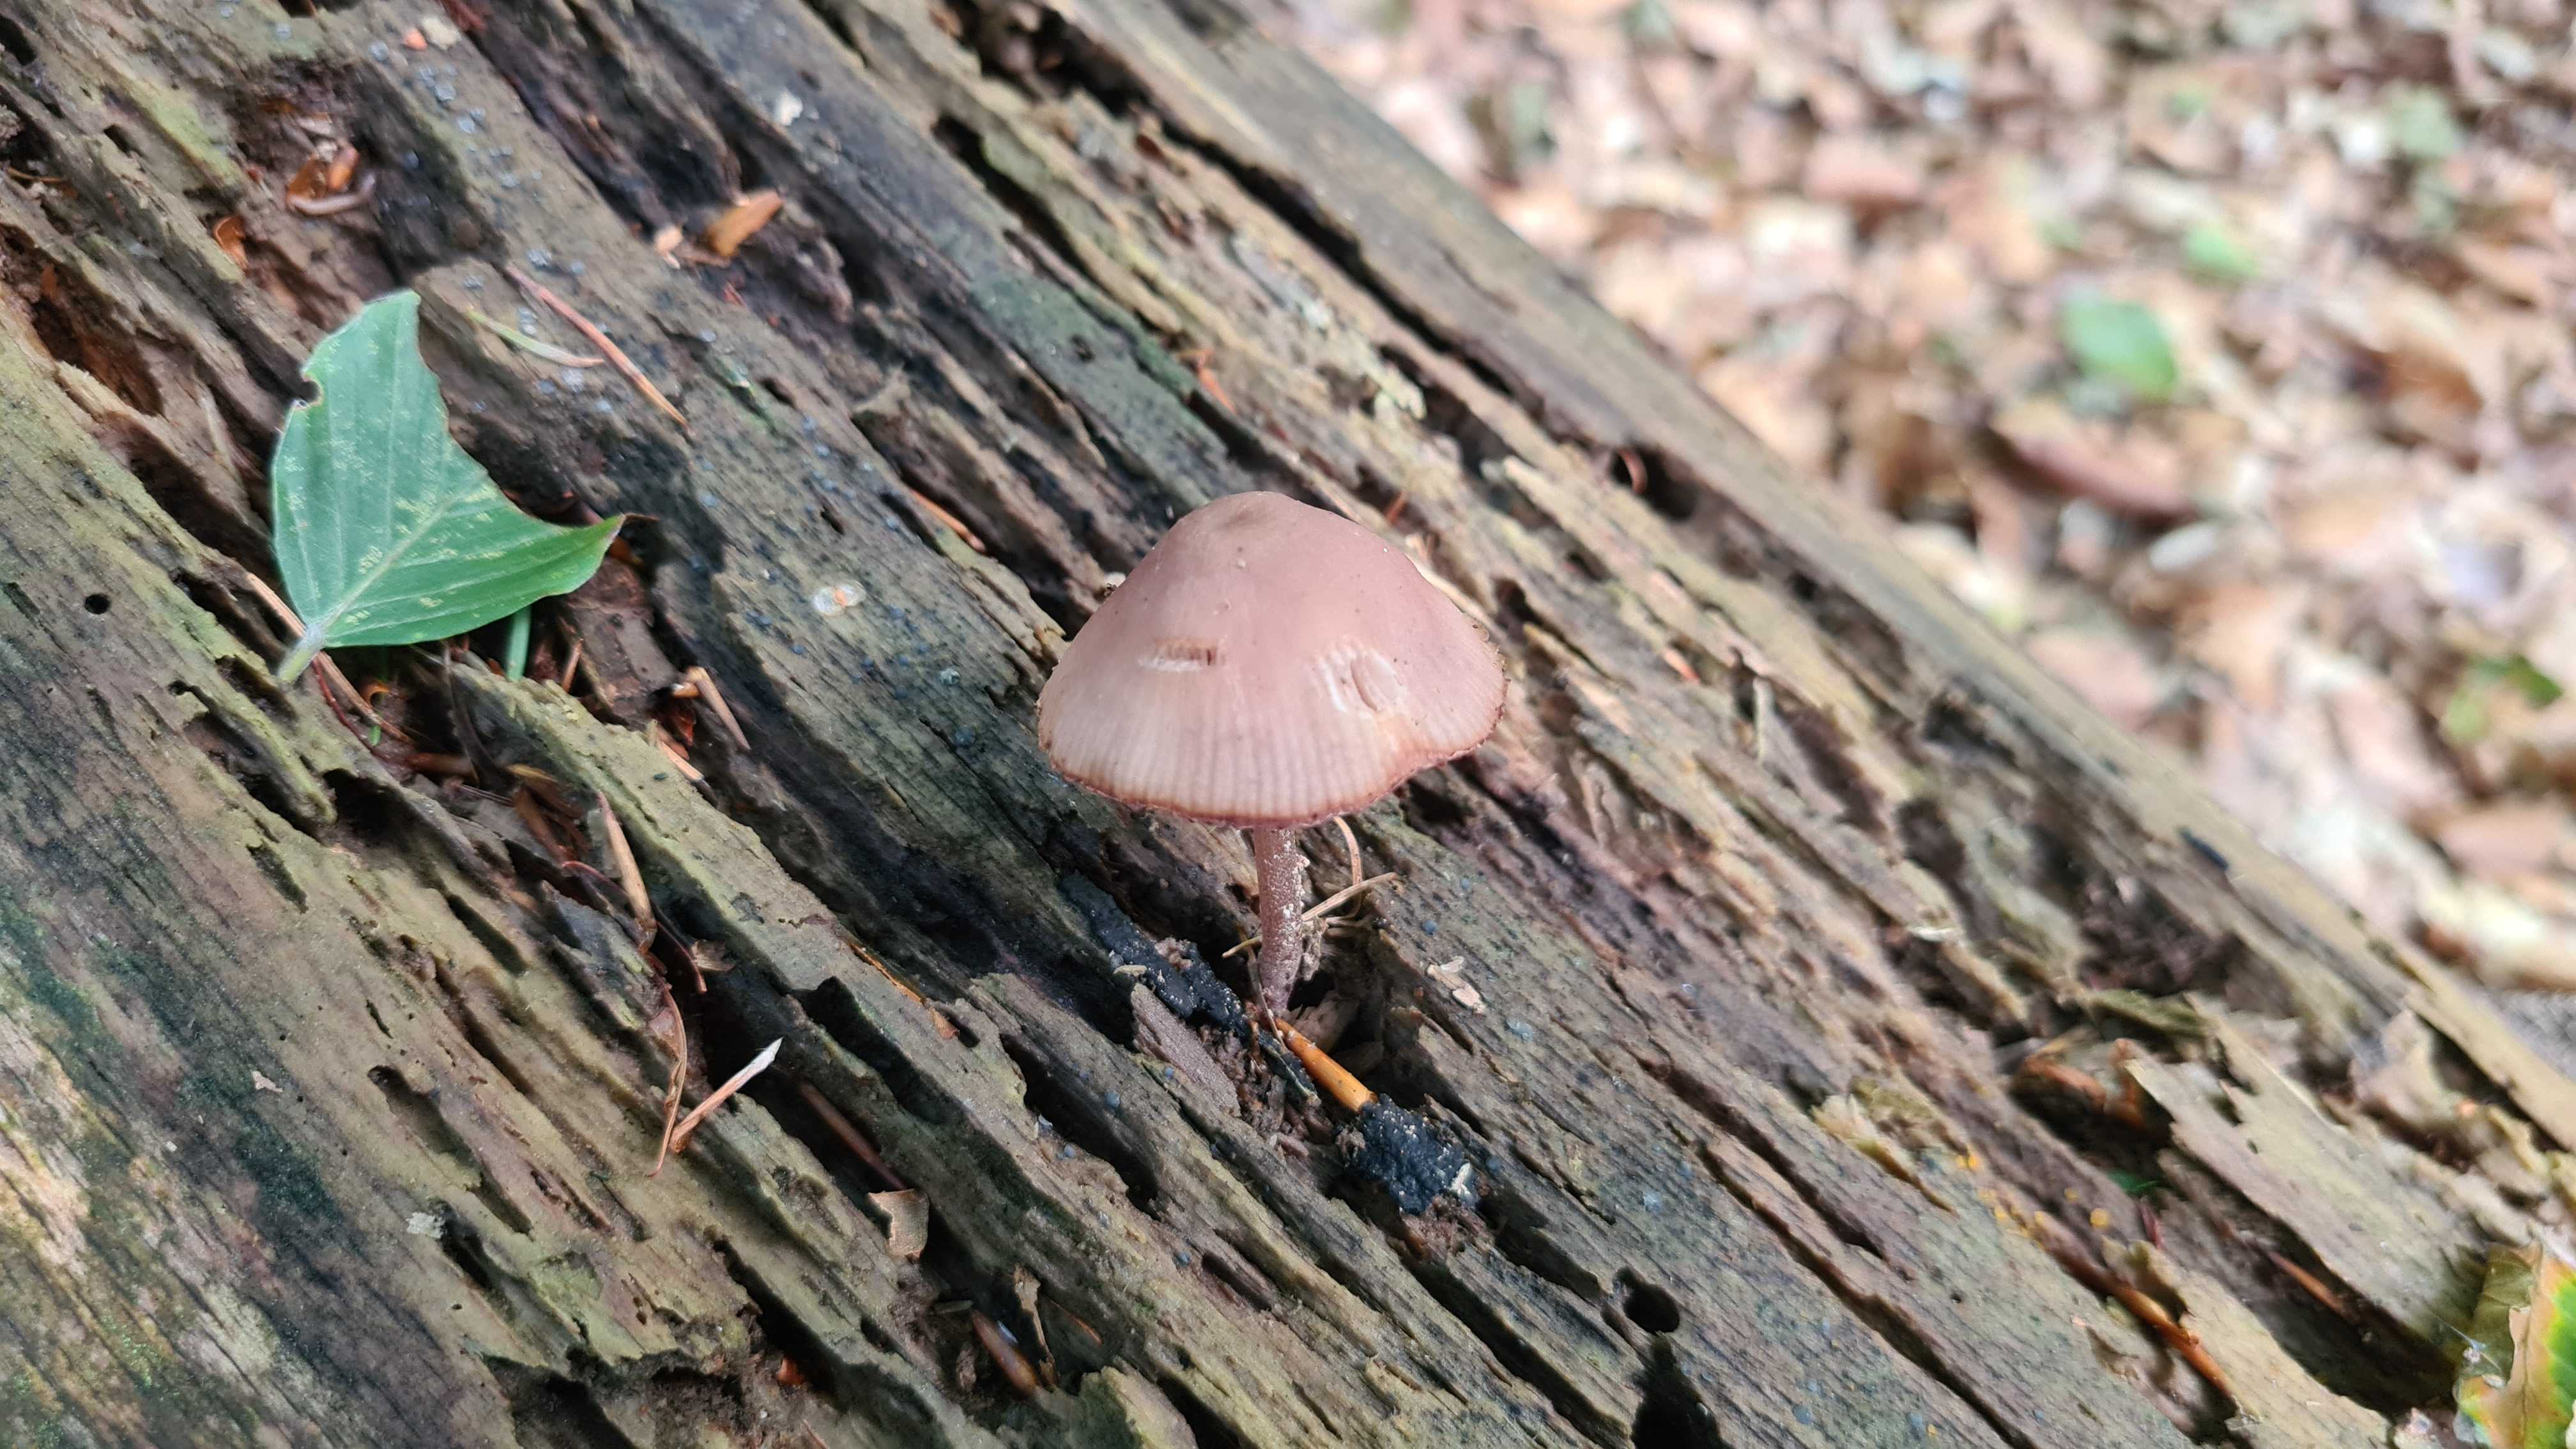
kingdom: Fungi
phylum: Basidiomycota
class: Agaricomycetes
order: Agaricales
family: Mycenaceae
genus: Mycena
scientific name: Mycena haematopus
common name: blødende huesvamp
